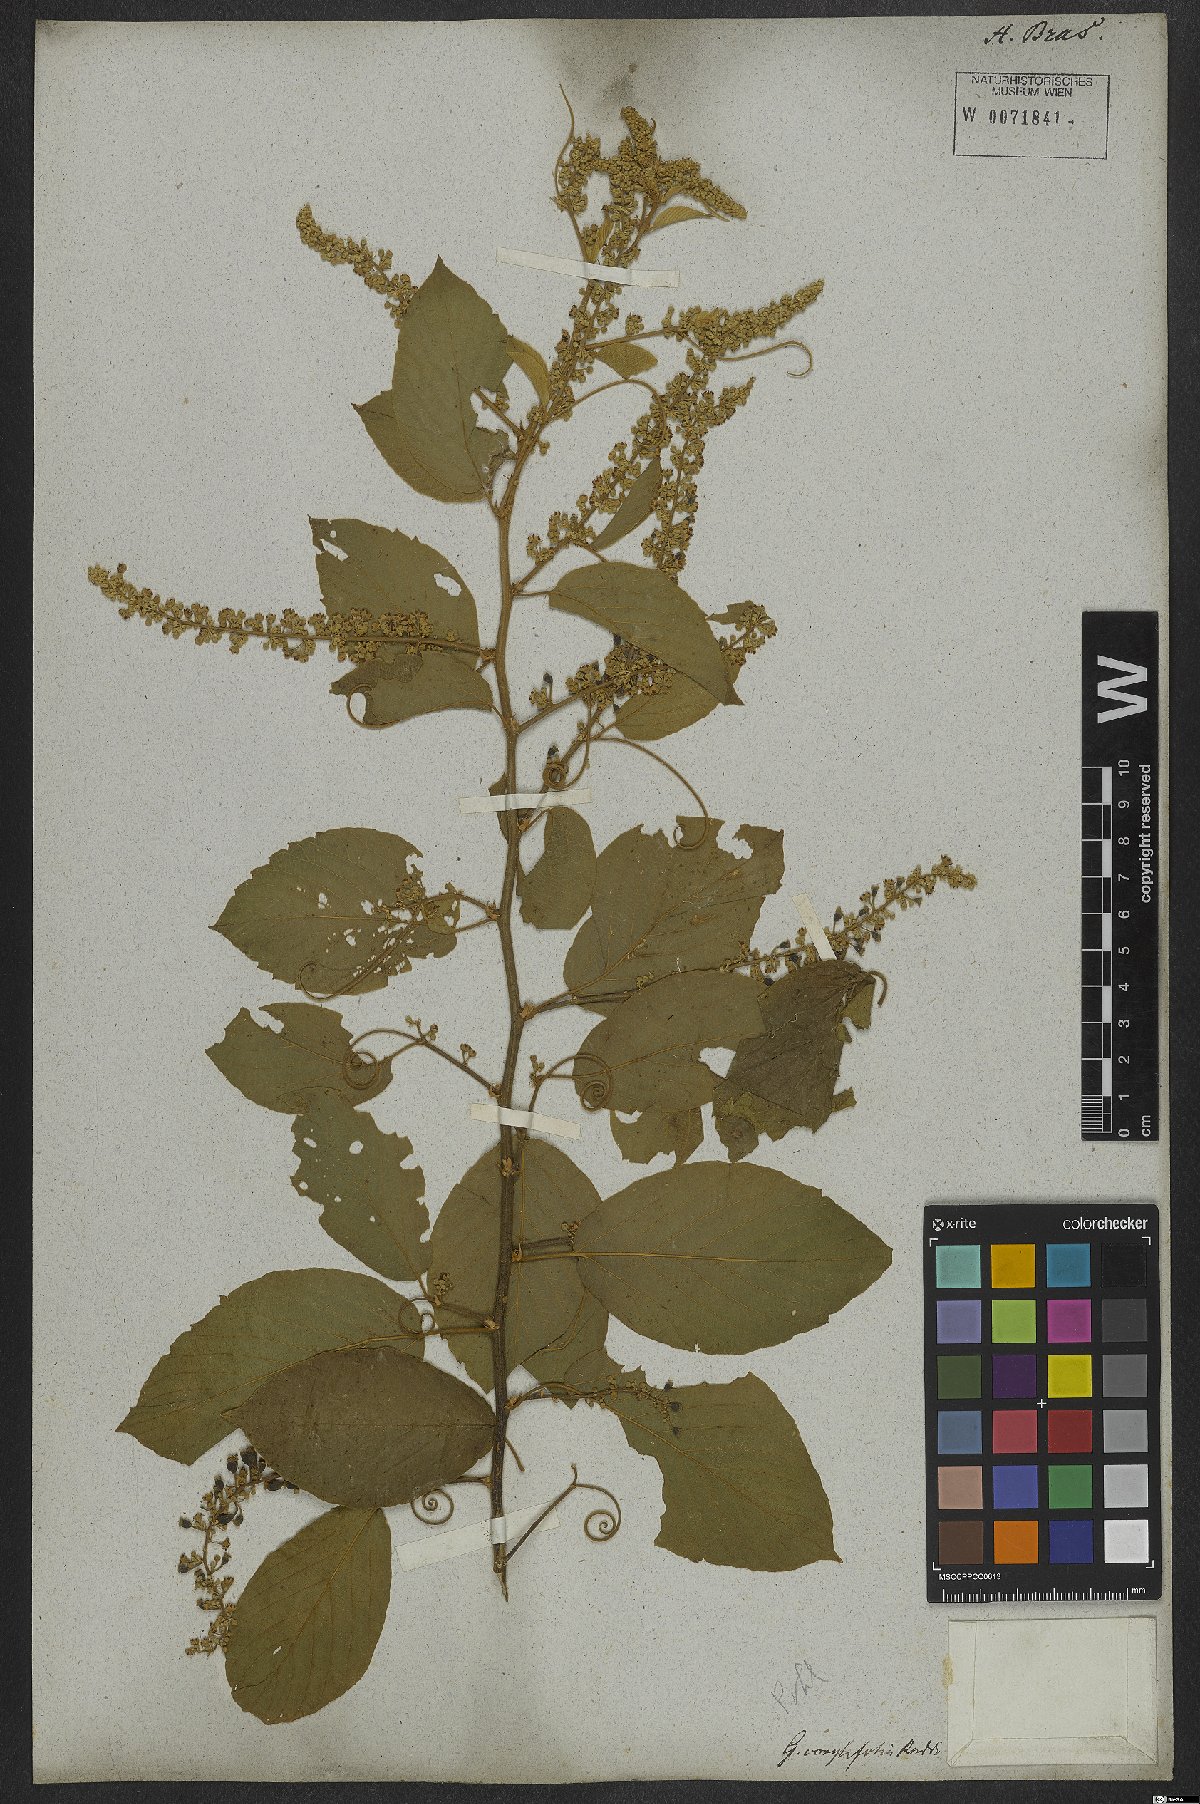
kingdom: Plantae
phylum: Tracheophyta
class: Magnoliopsida
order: Rosales
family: Rhamnaceae
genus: Gouania
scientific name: Gouania corylifolia
